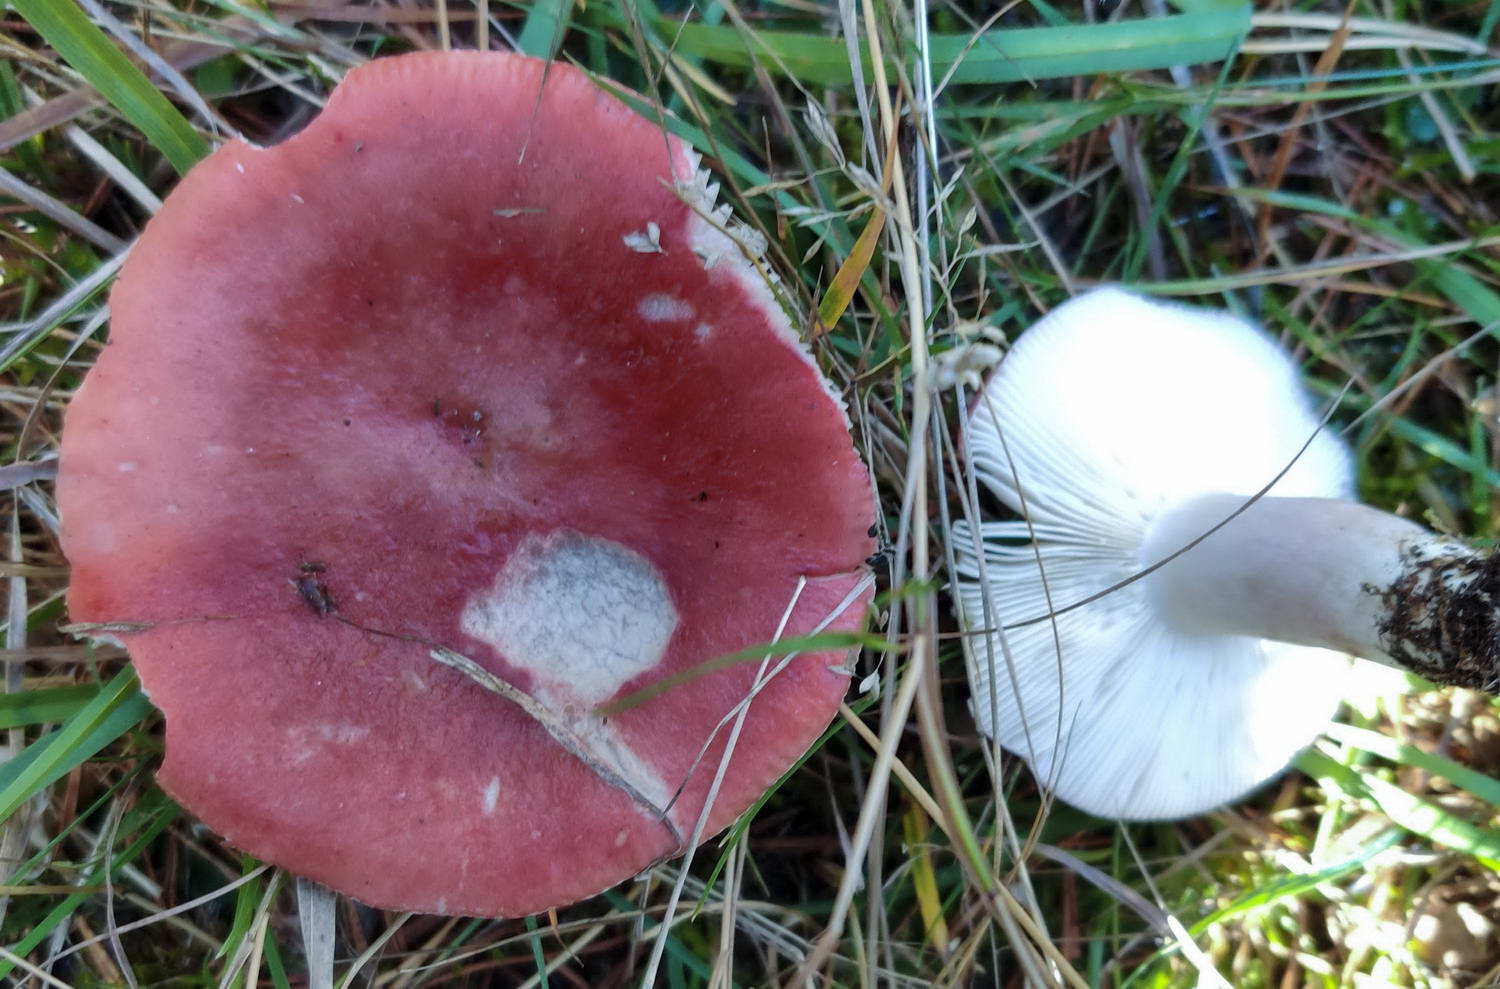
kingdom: Fungi
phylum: Basidiomycota
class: Agaricomycetes
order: Russulales
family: Russulaceae
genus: Russula
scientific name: Russula sanguinea
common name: blodrød skørhat
